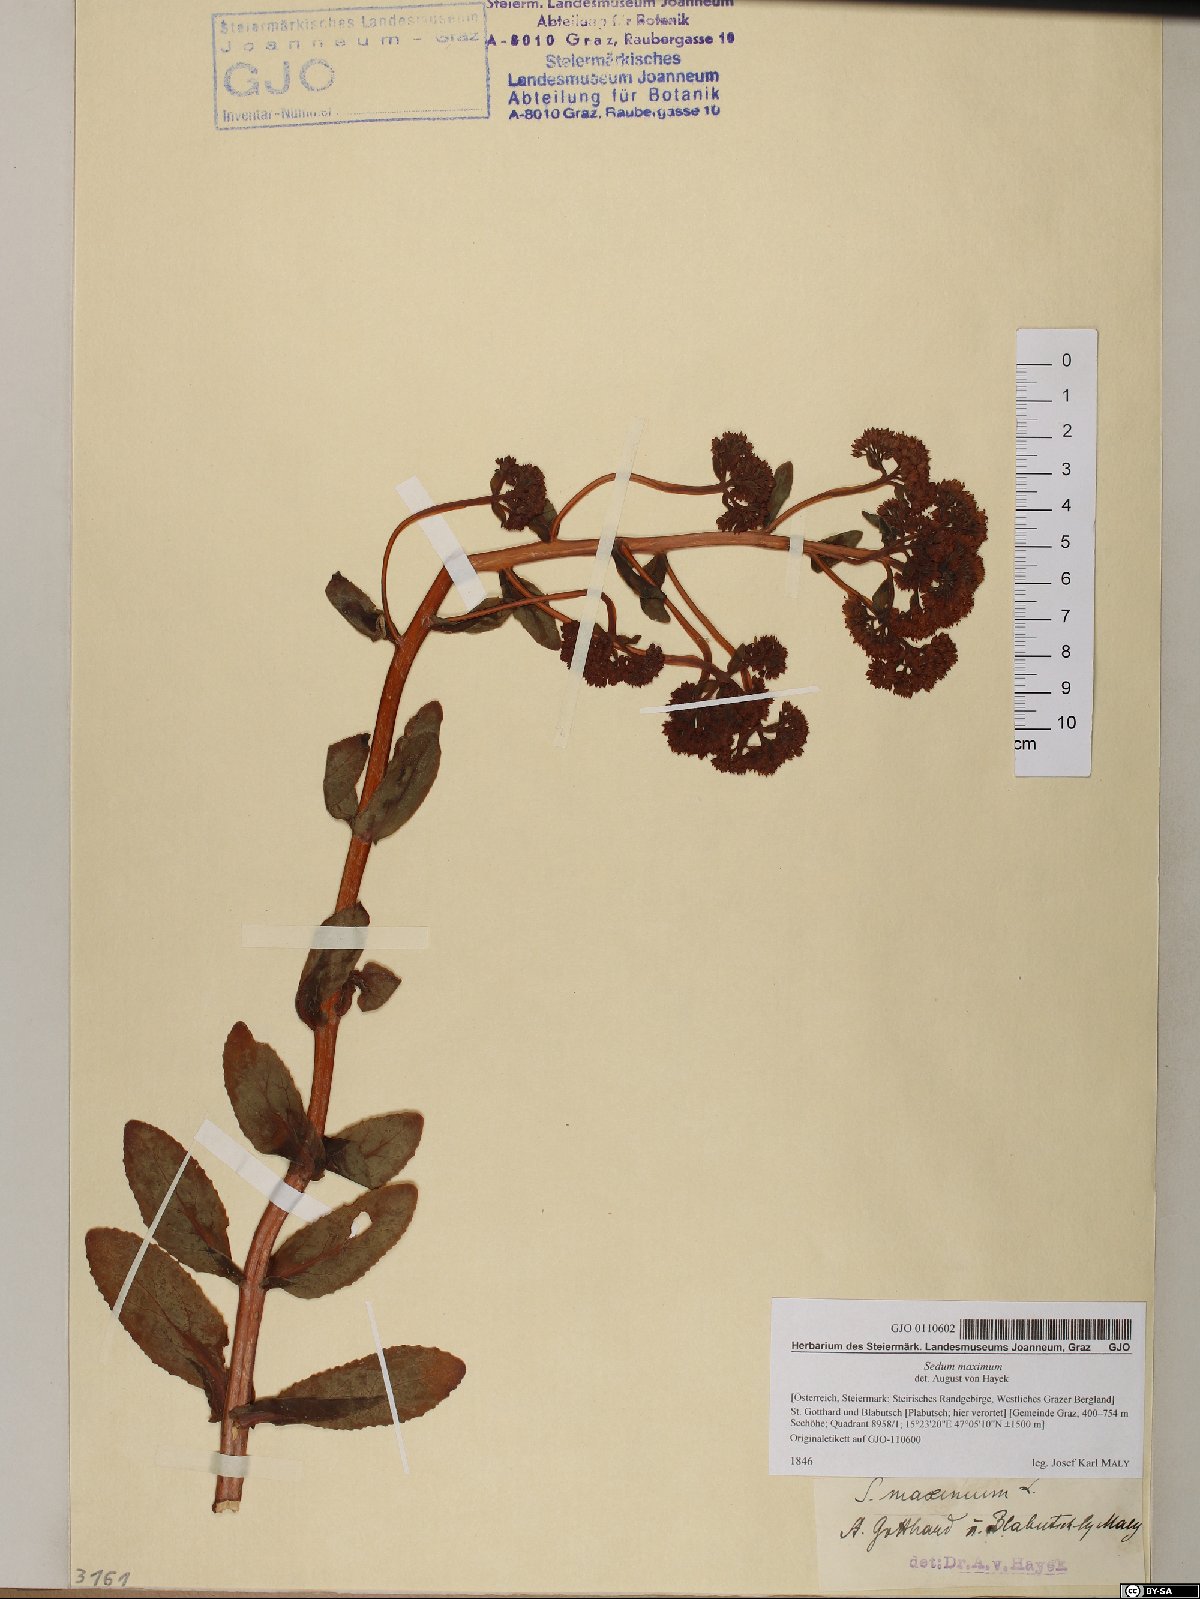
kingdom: Plantae
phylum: Tracheophyta
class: Magnoliopsida
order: Saxifragales
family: Crassulaceae
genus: Hylotelephium
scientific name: Hylotelephium maximum
